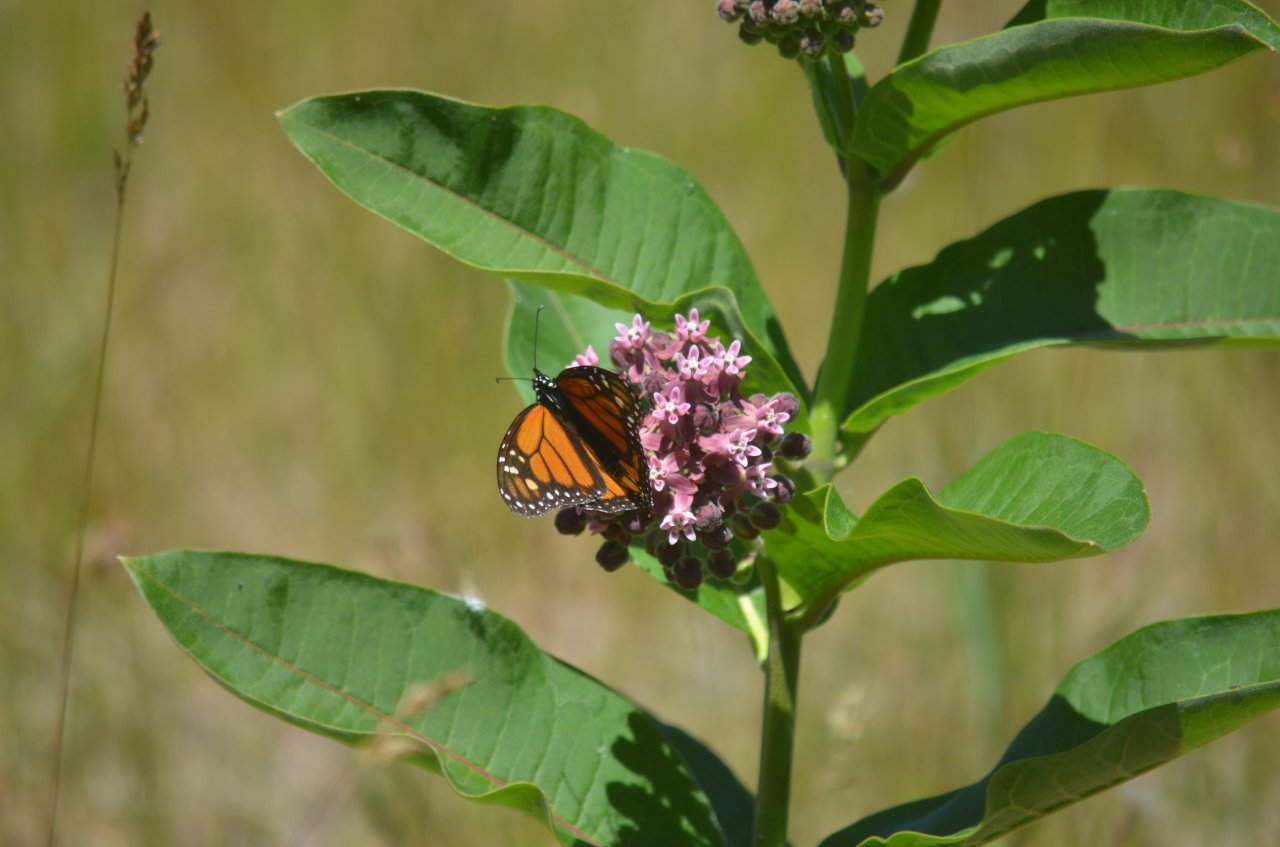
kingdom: Animalia
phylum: Arthropoda
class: Insecta
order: Lepidoptera
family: Nymphalidae
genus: Danaus
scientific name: Danaus plexippus
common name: Monarch
